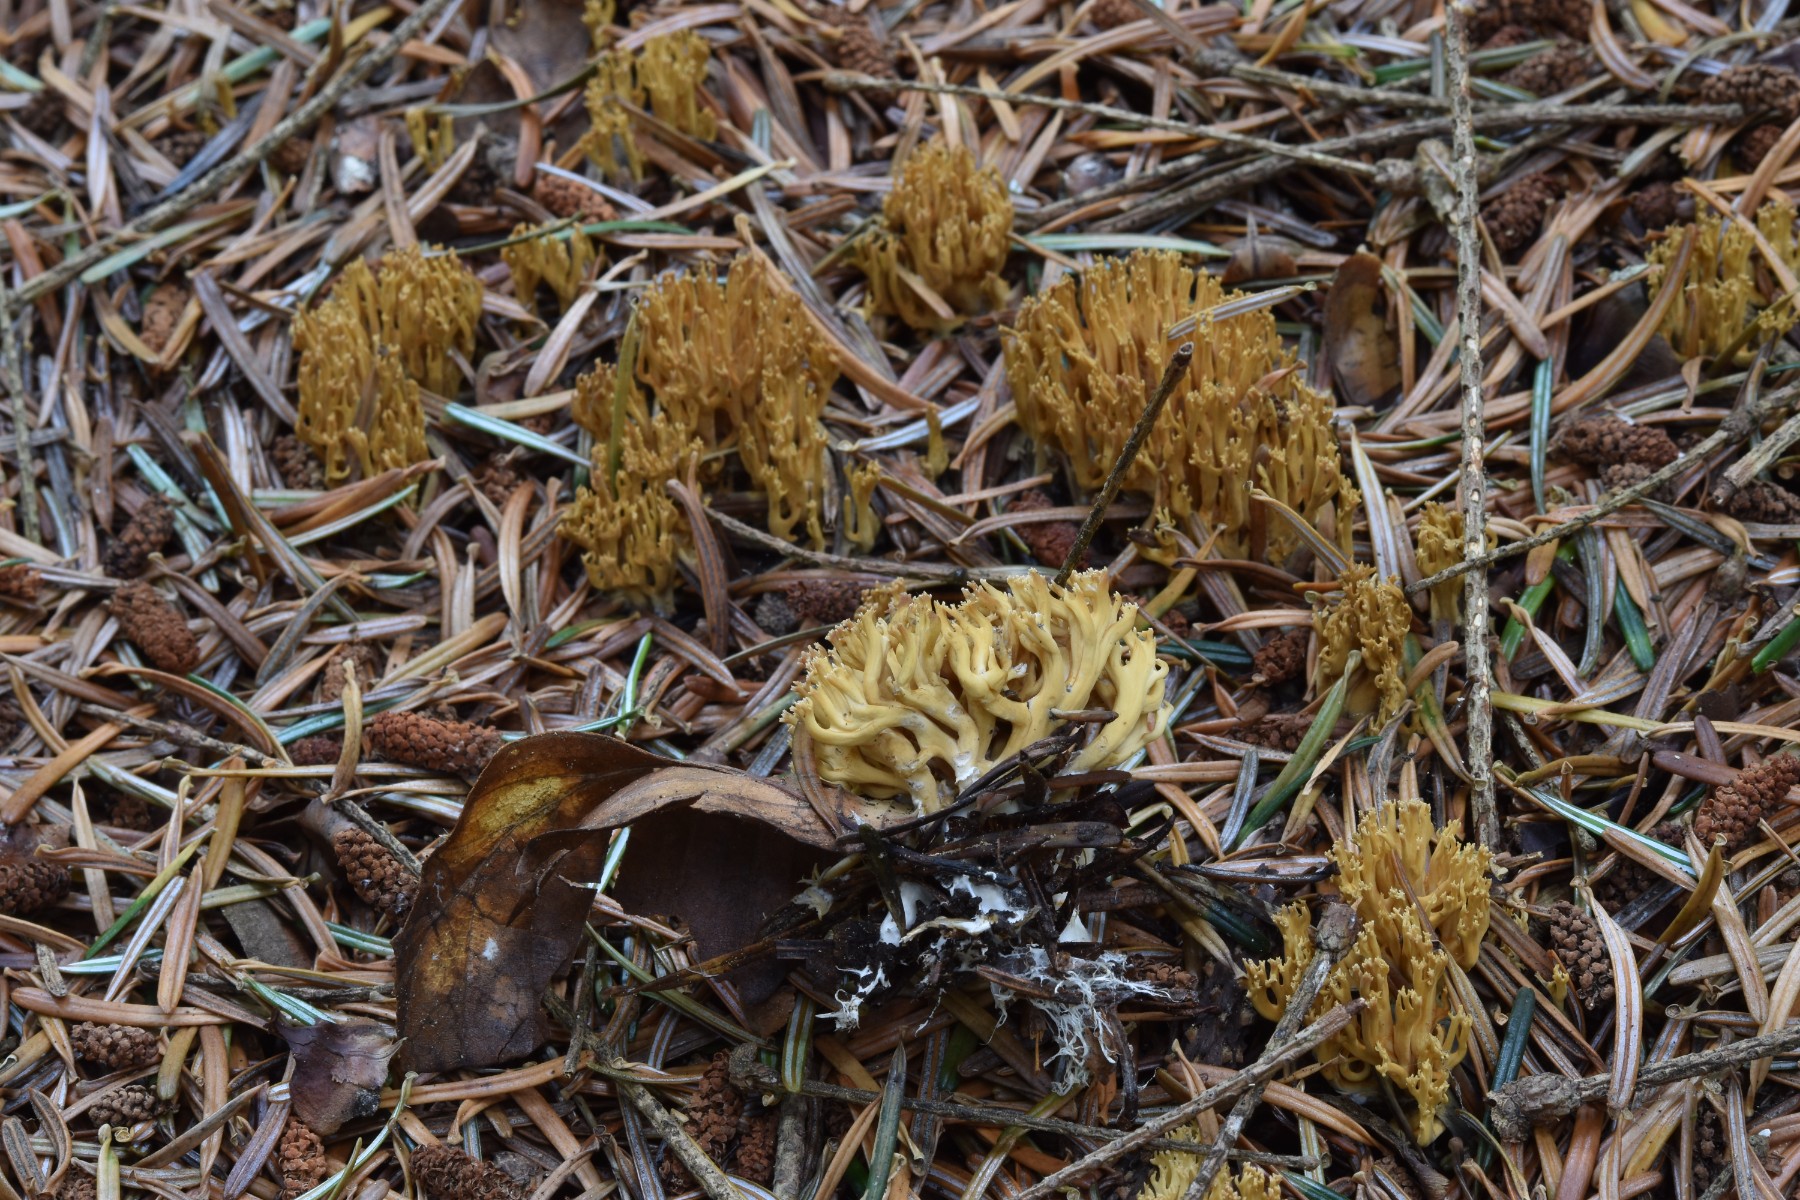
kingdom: Fungi
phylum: Basidiomycota
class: Agaricomycetes
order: Gomphales
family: Gomphaceae
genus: Phaeoclavulina
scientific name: Phaeoclavulina eumorpha
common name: gran-koralsvamp
